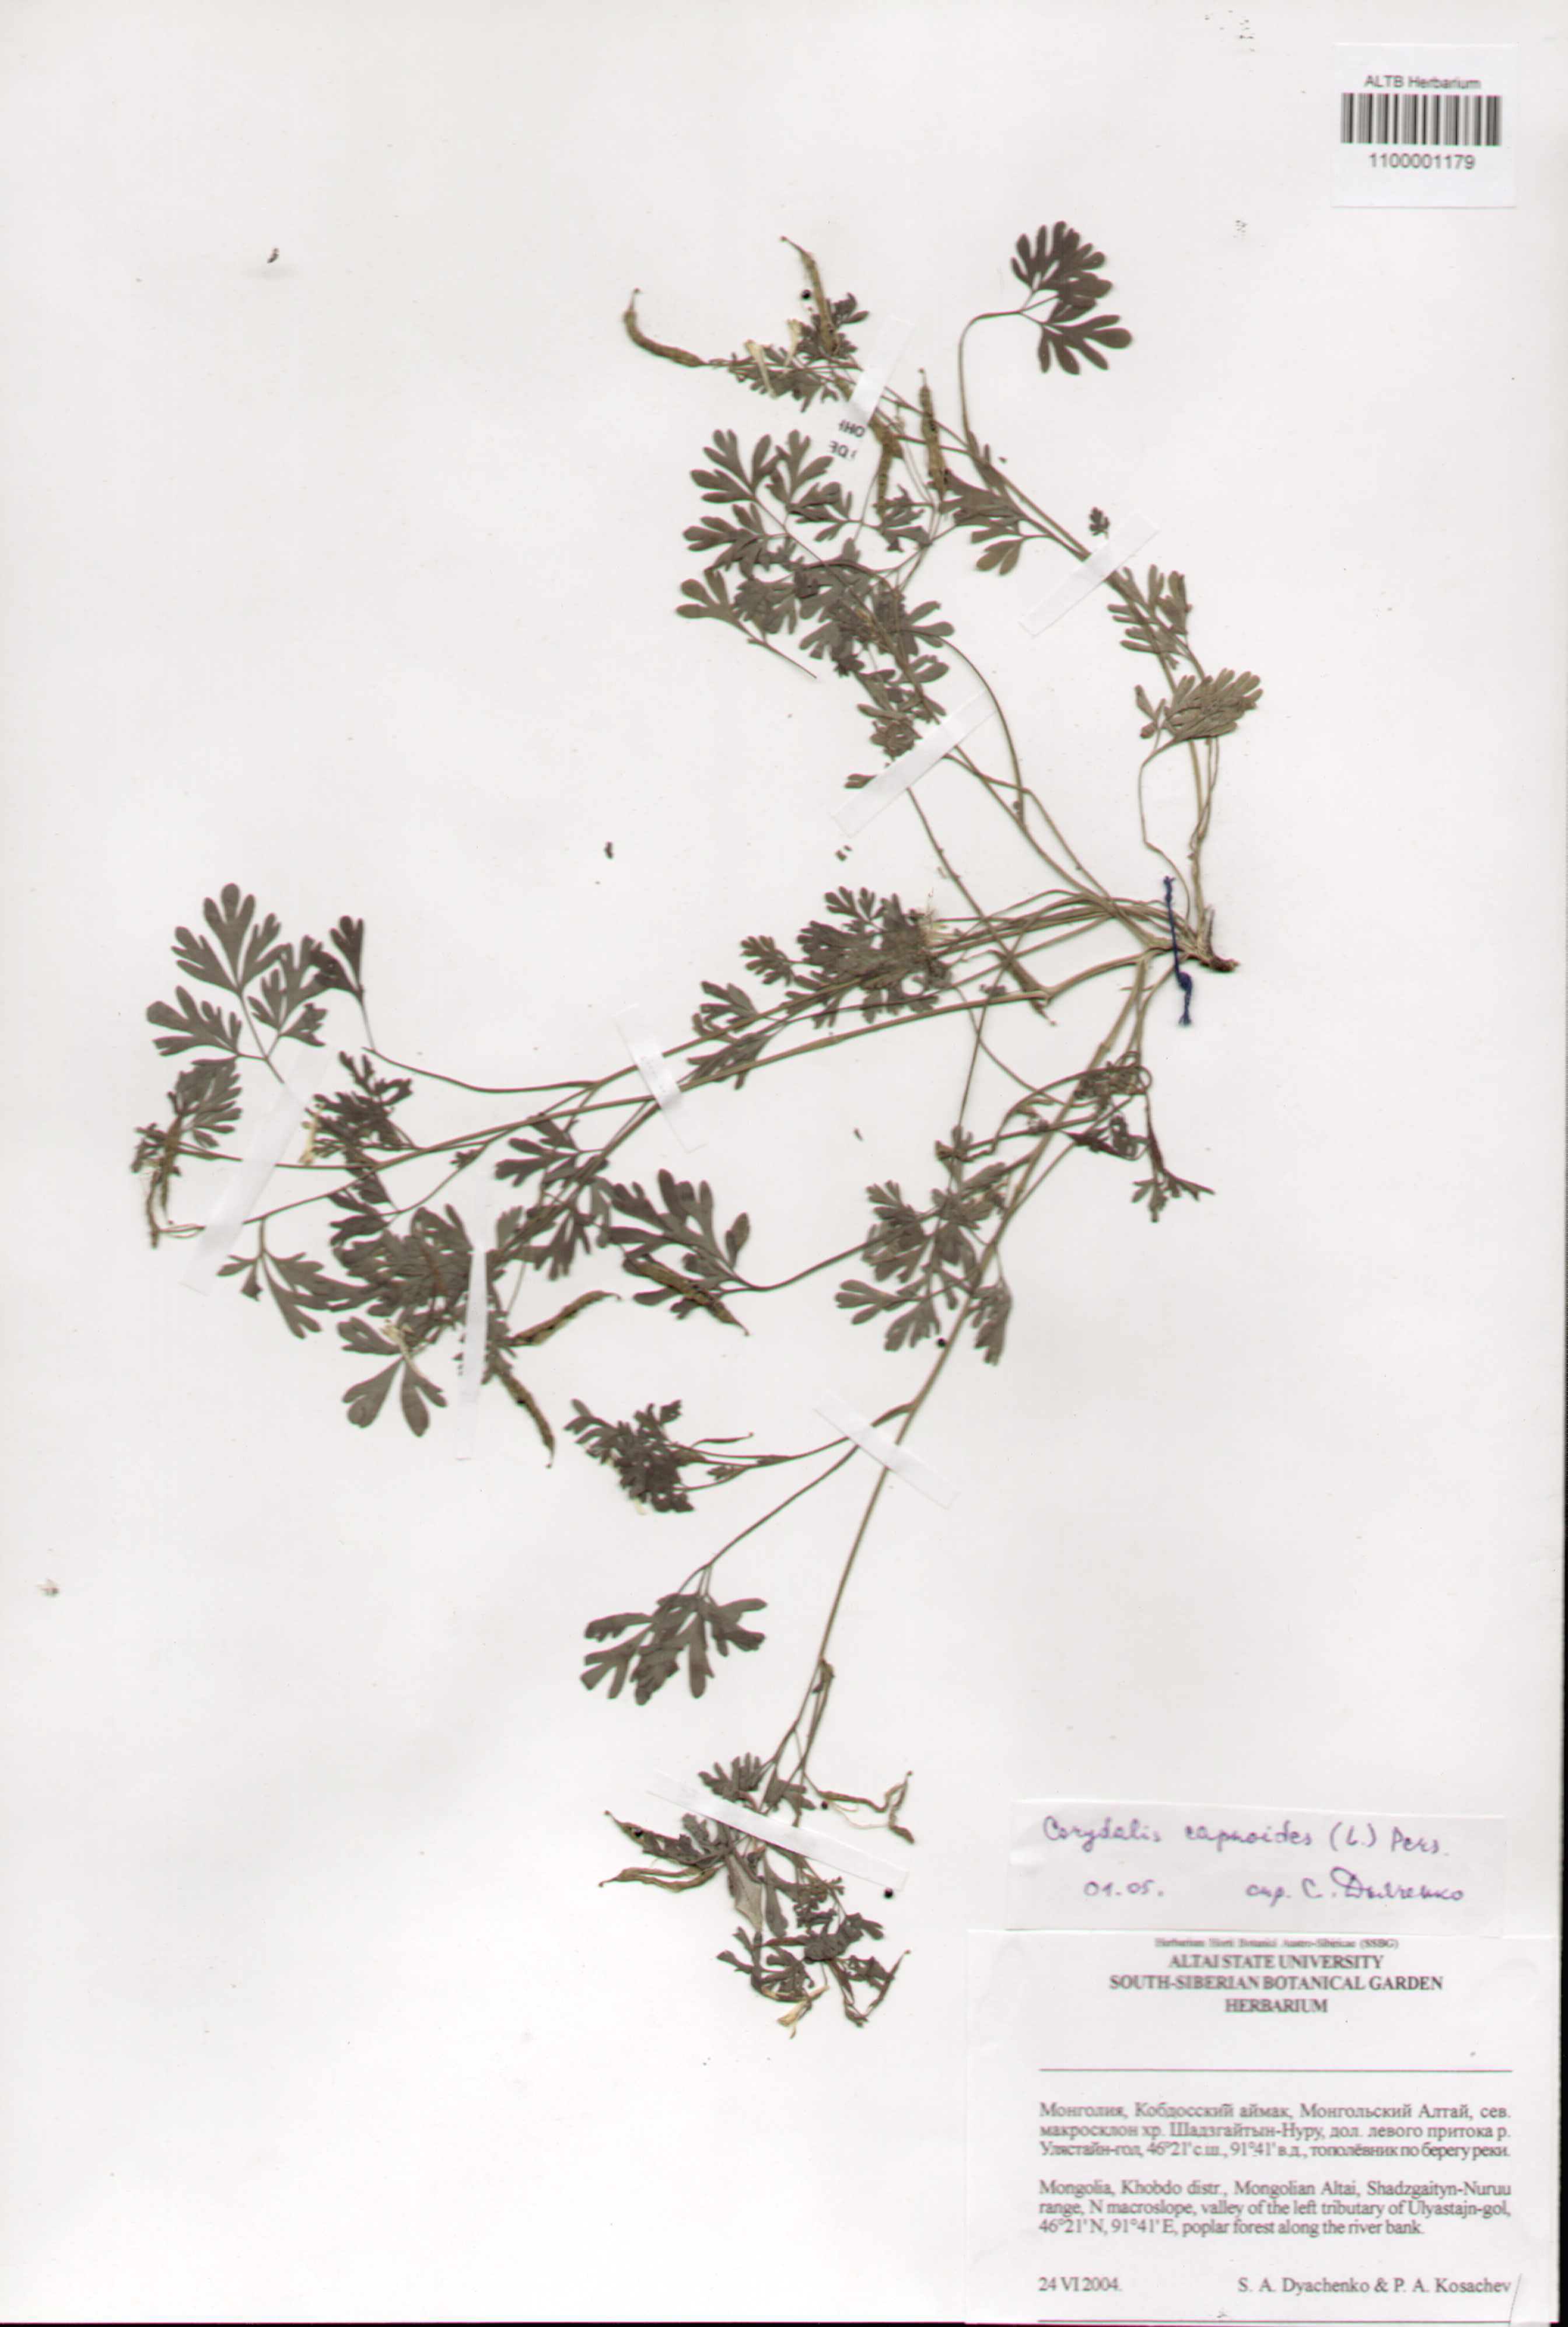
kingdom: Plantae
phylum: Tracheophyta
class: Magnoliopsida
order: Ranunculales
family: Papaveraceae
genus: Corydalis
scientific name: Corydalis capnoides
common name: Beaked corydalis
